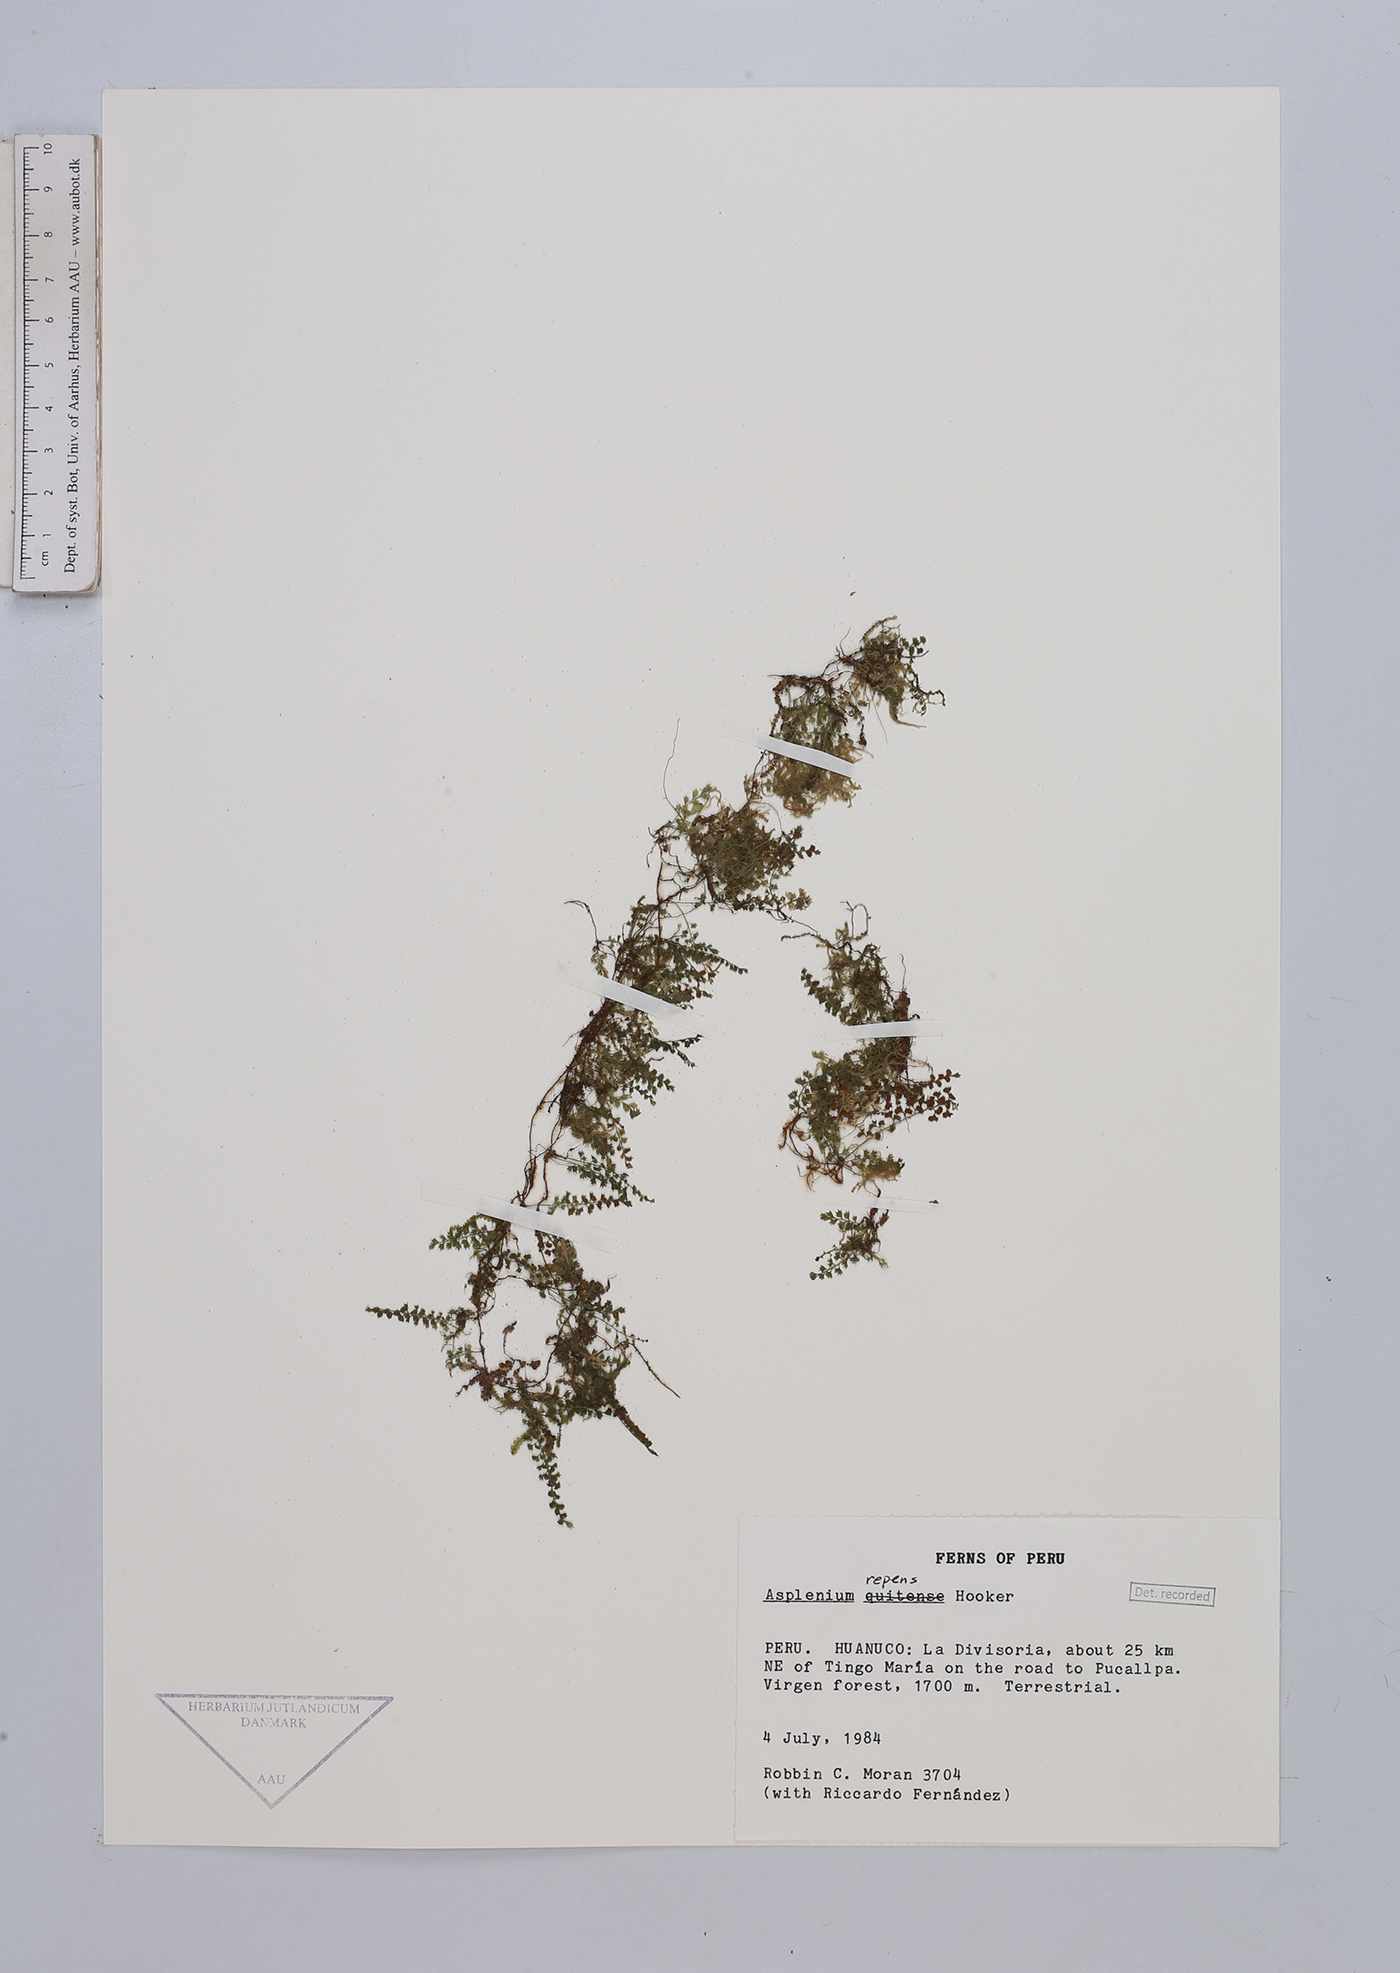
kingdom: Plantae
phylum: Tracheophyta
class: Polypodiopsida
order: Polypodiales
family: Aspleniaceae
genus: Asplenium
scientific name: Asplenium repens
